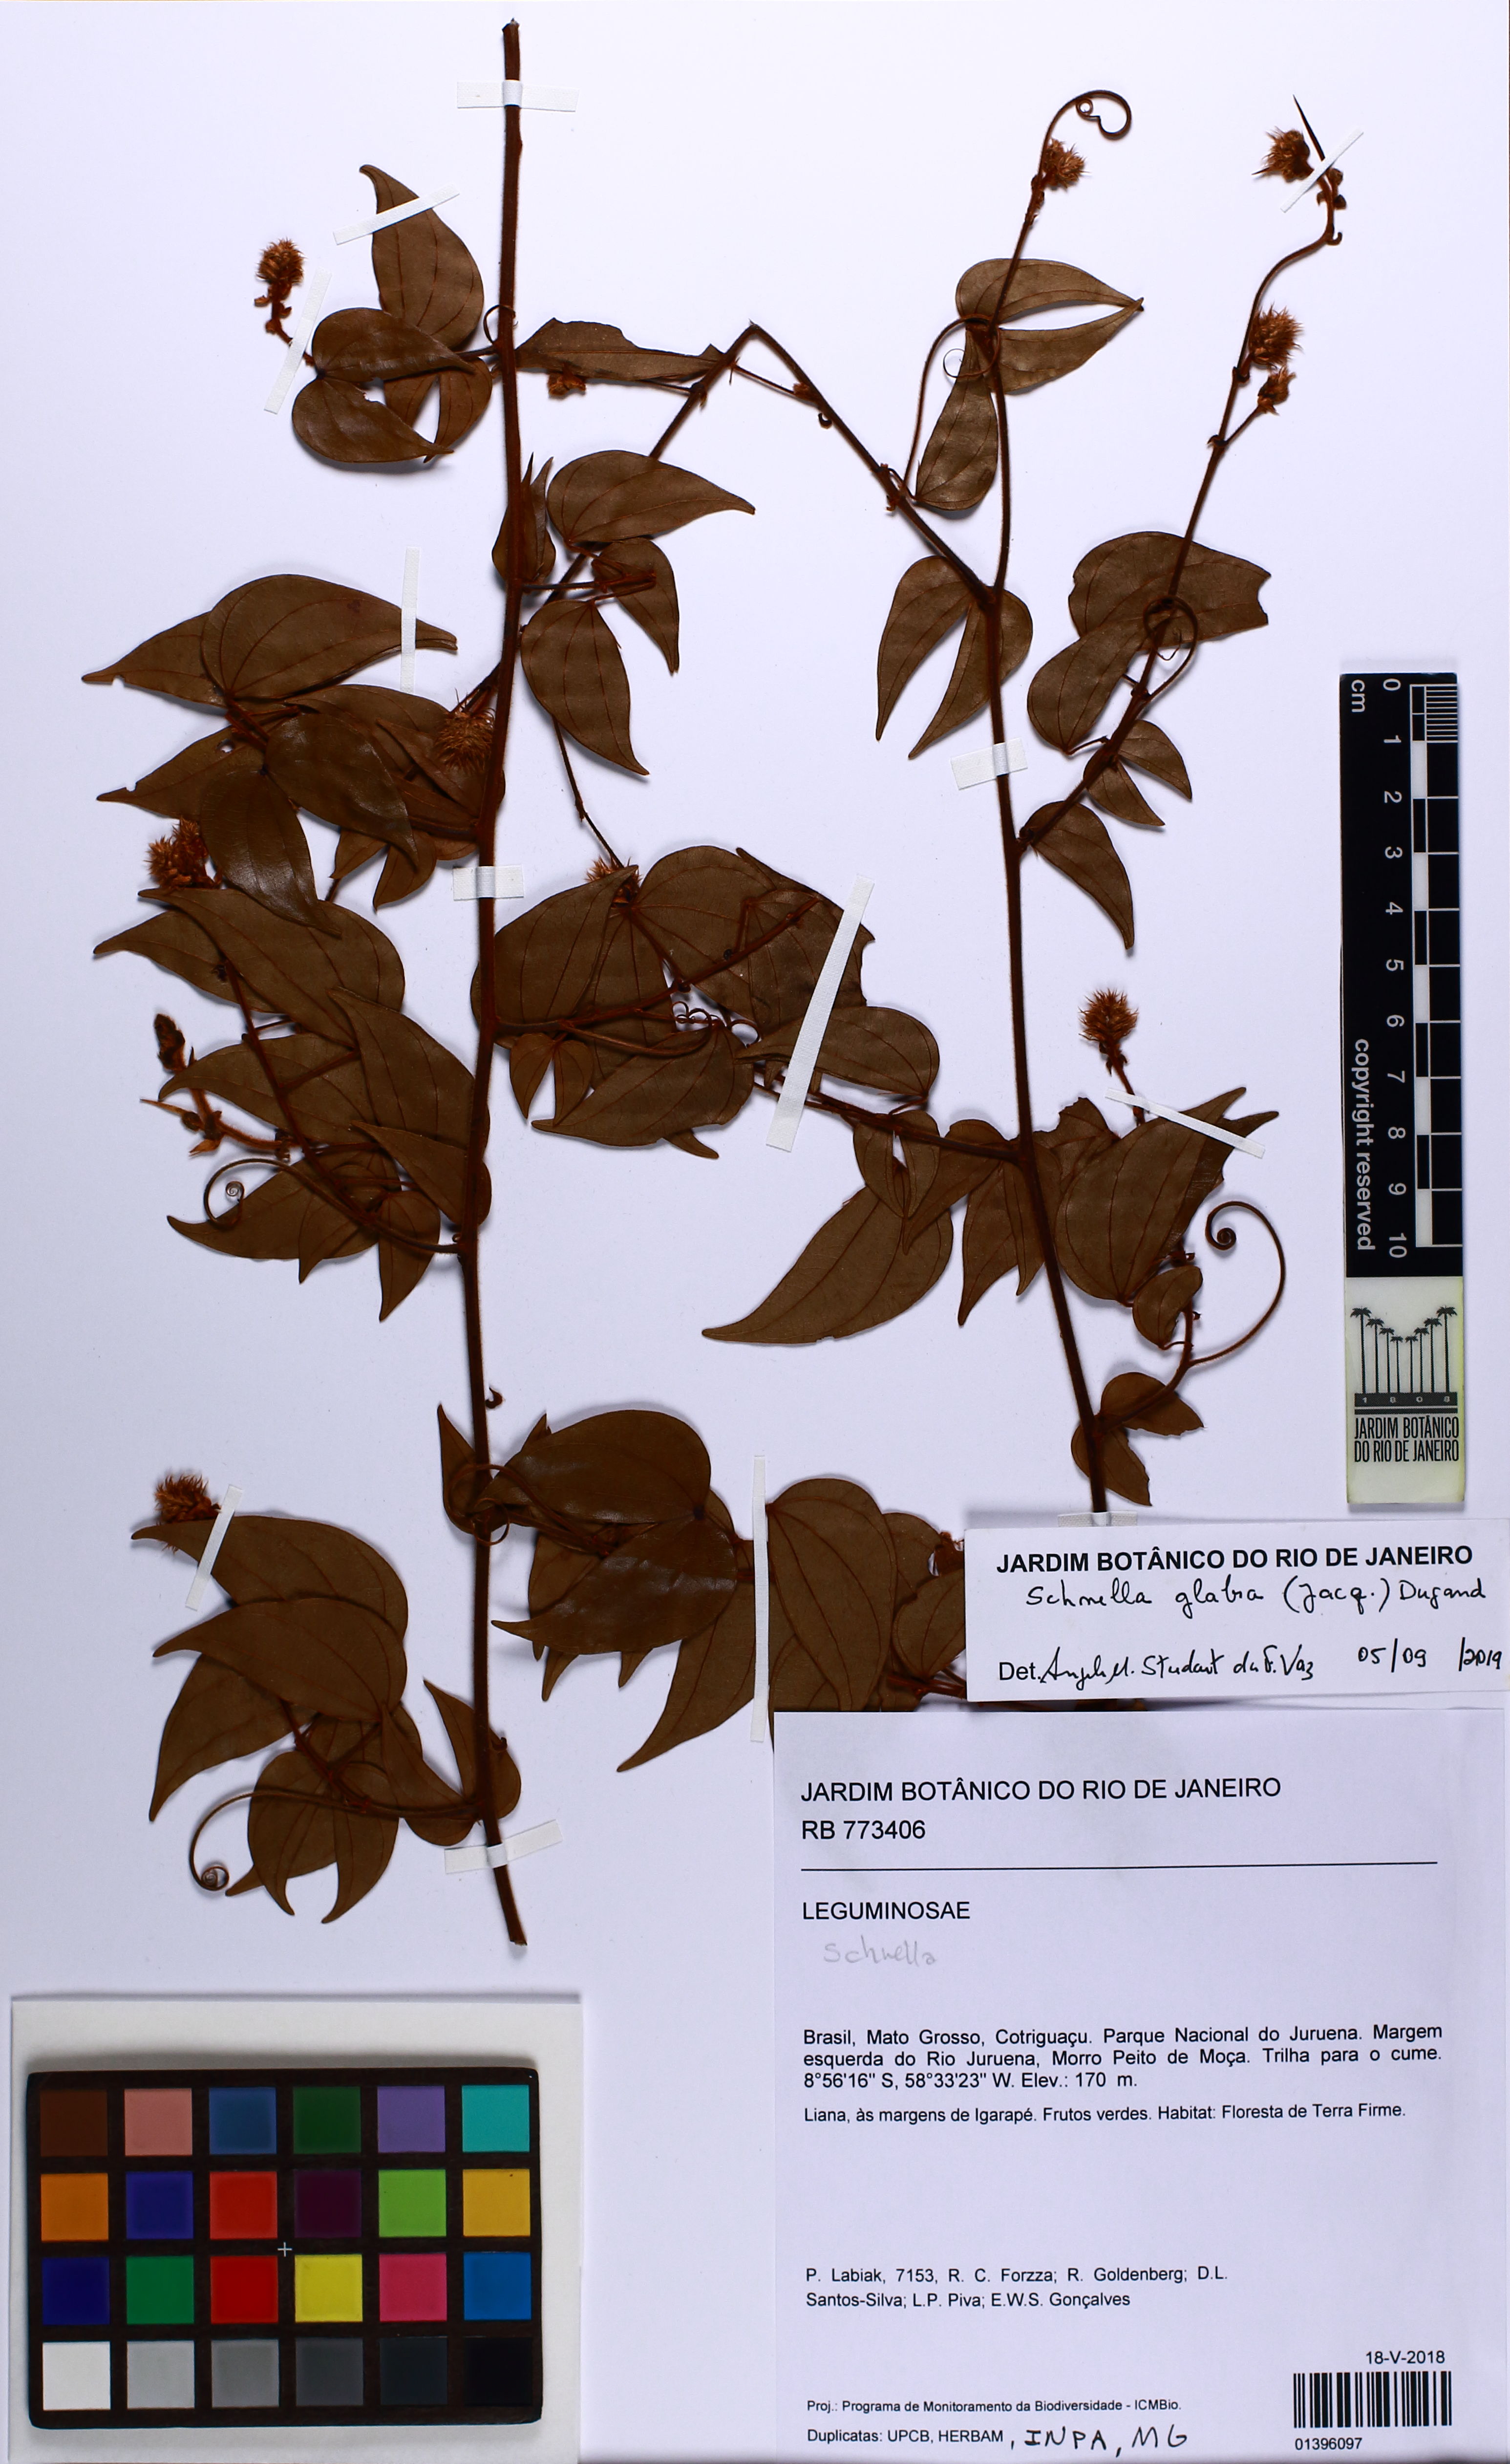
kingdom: Plantae
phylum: Tracheophyta
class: Magnoliopsida
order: Fabales
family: Fabaceae
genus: Schnella
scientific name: Schnella glabra
